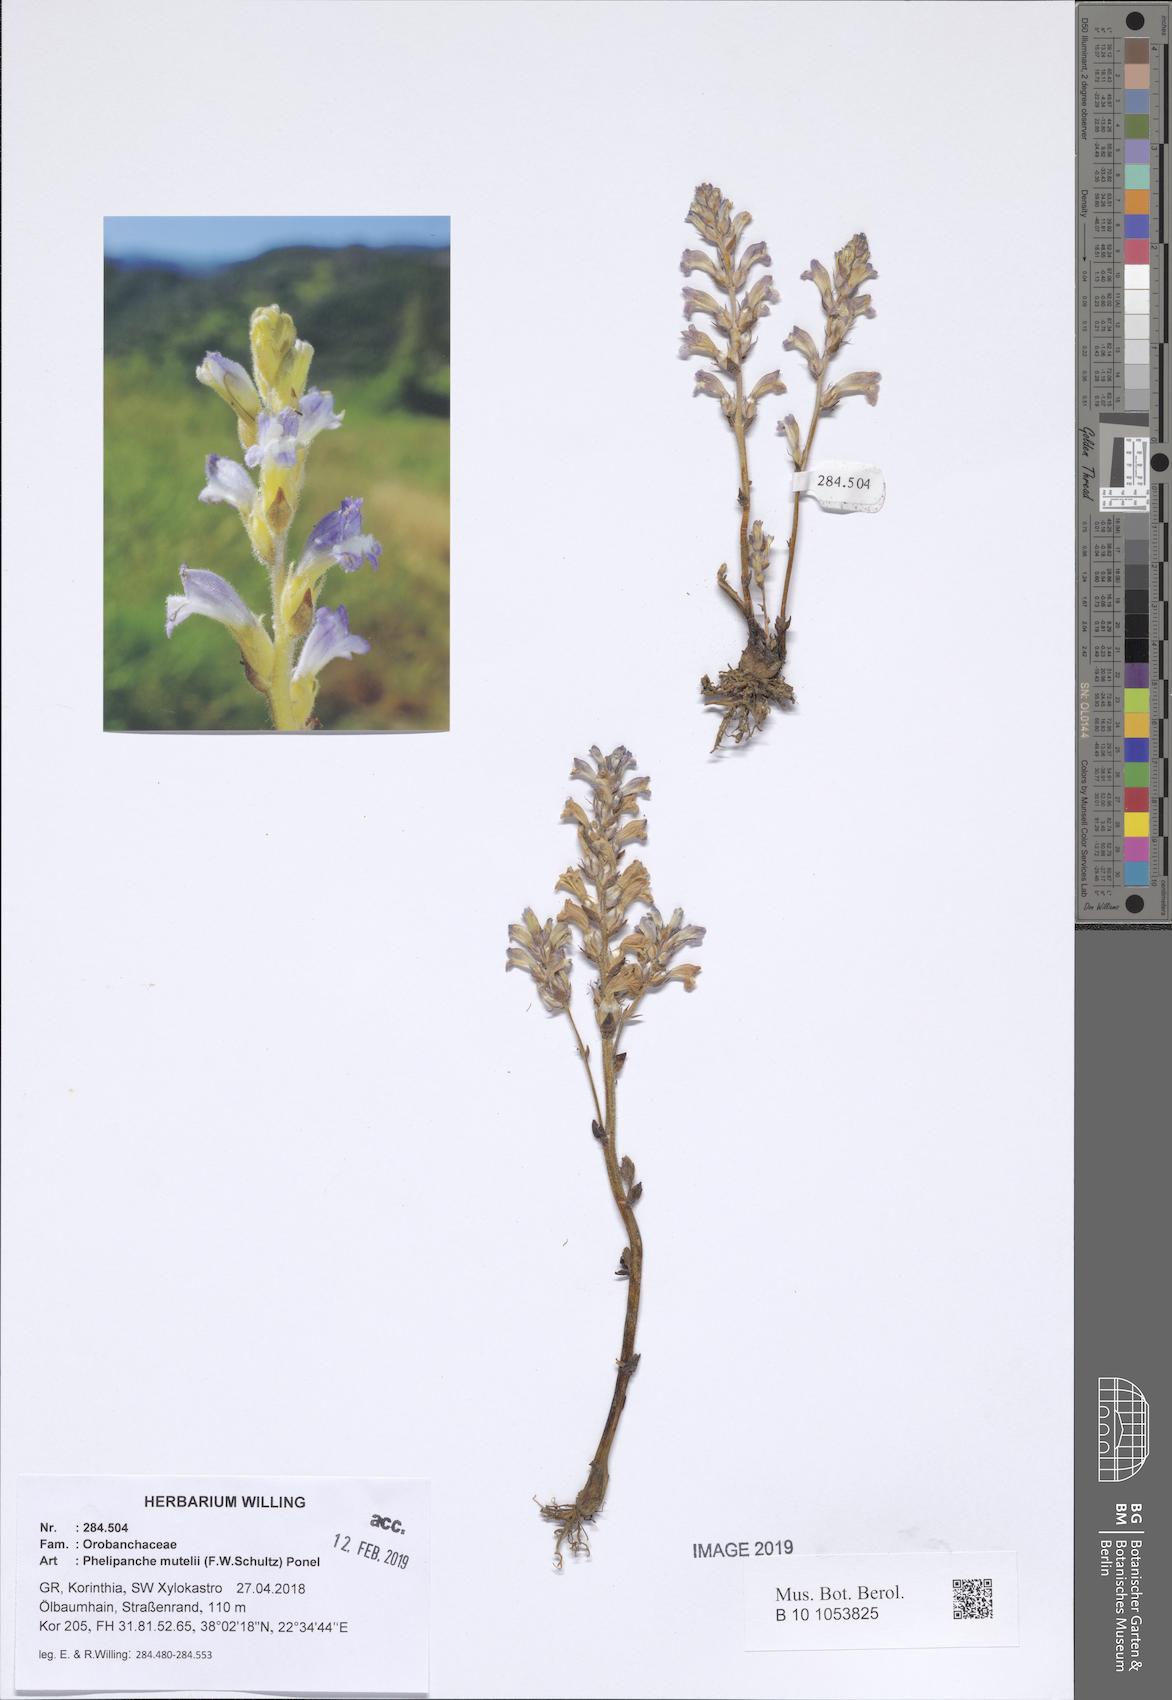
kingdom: Plantae
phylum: Tracheophyta
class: Magnoliopsida
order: Lamiales
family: Orobanchaceae
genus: Phelipanche
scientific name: Phelipanche mutelii
